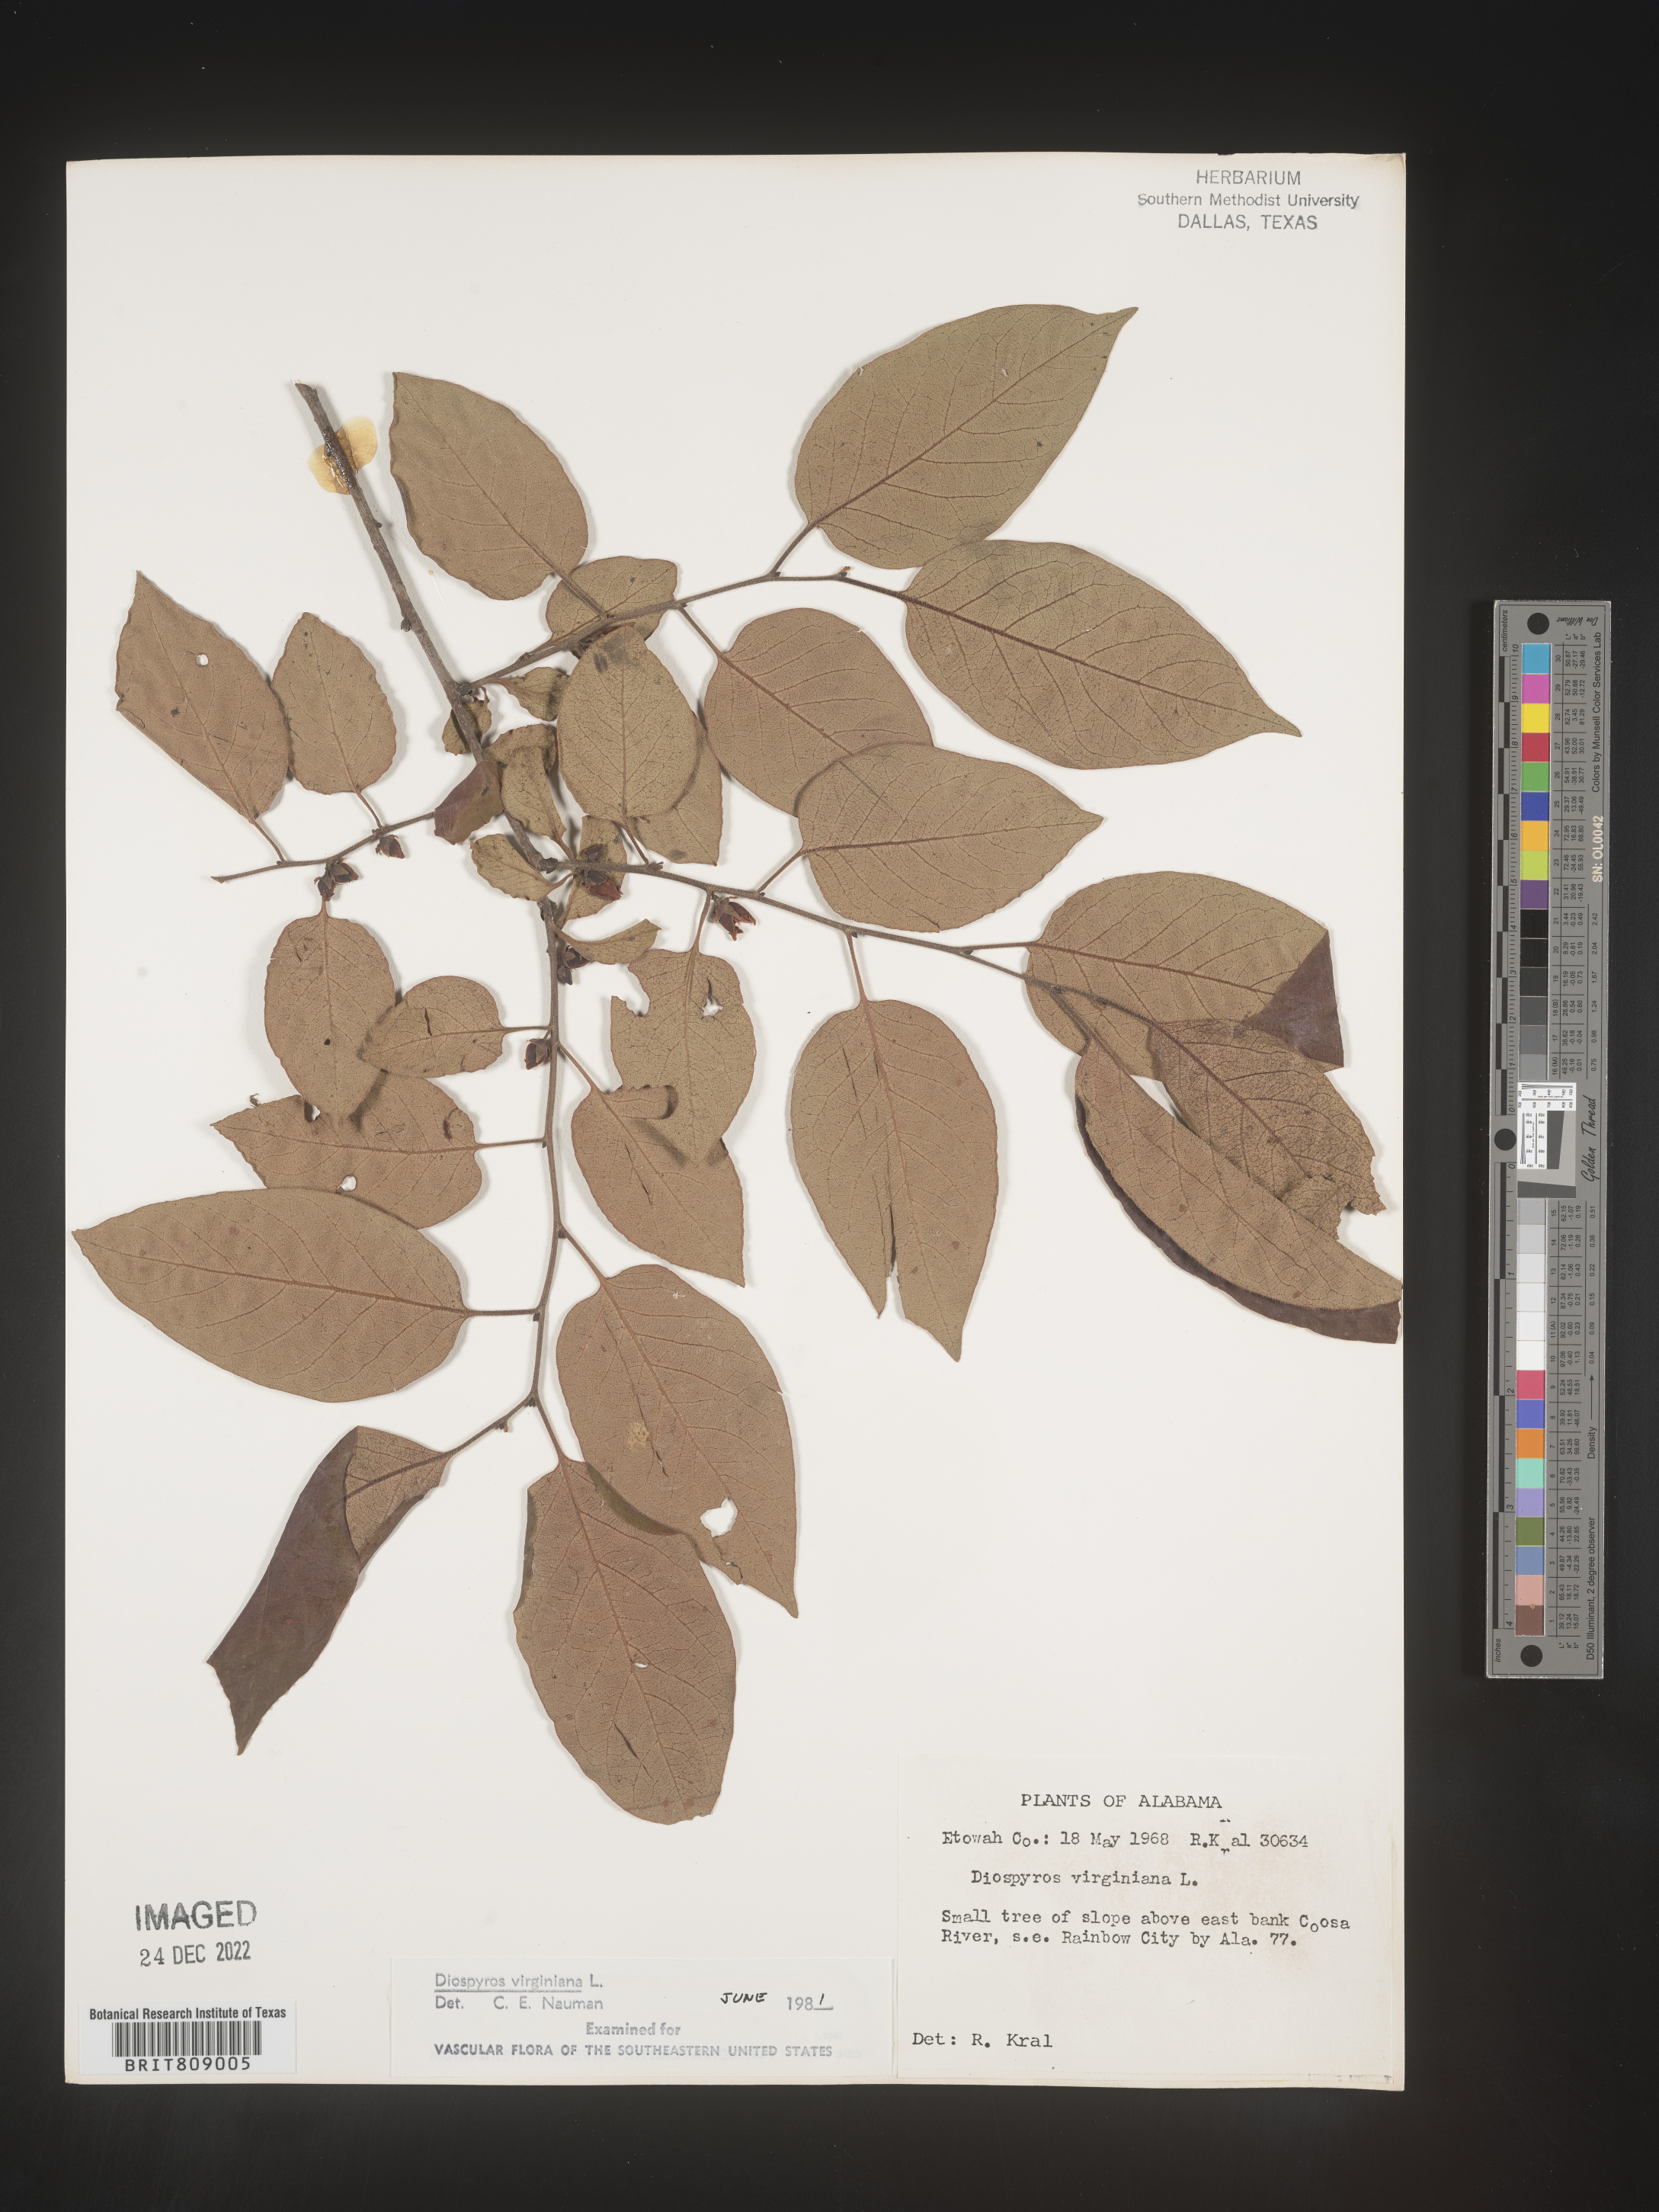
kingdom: Plantae
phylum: Tracheophyta
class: Magnoliopsida
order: Ericales
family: Ebenaceae
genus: Diospyros
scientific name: Diospyros virginiana
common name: Persimmon
